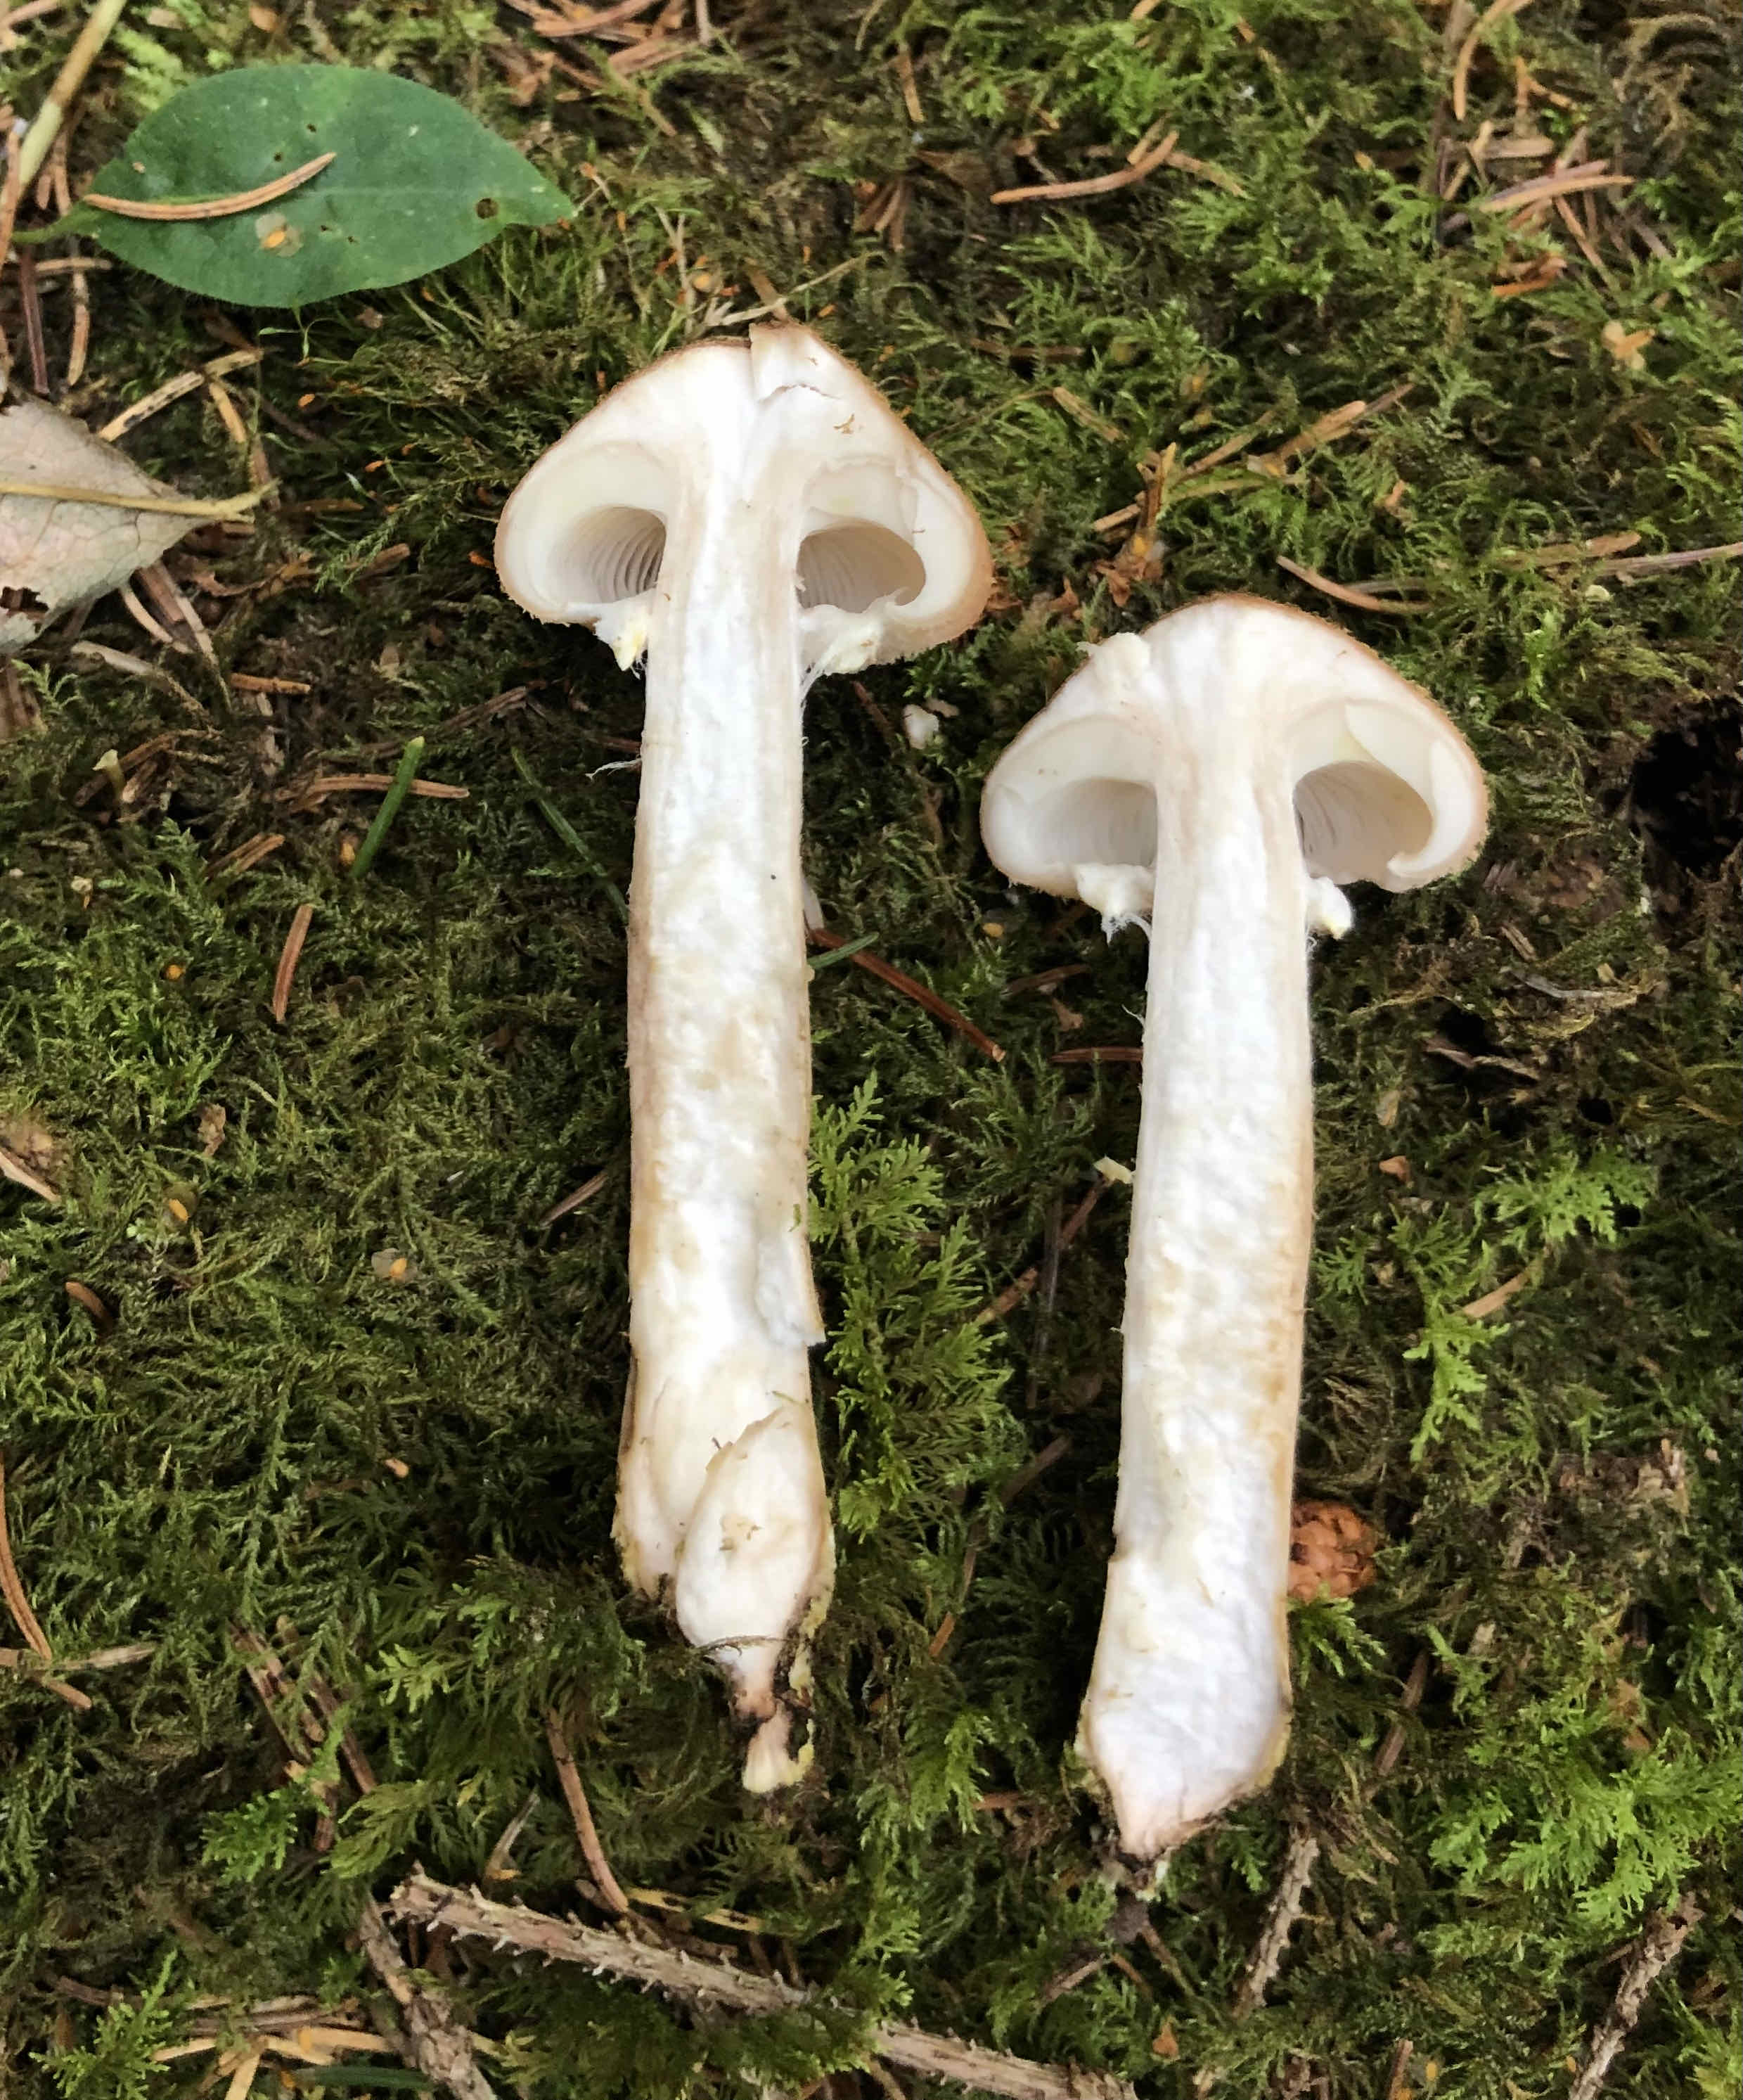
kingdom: Fungi
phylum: Basidiomycota
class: Agaricomycetes
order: Agaricales
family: Physalacriaceae
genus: Armillaria
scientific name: Armillaria ostoyae
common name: mørk honningsvamp
